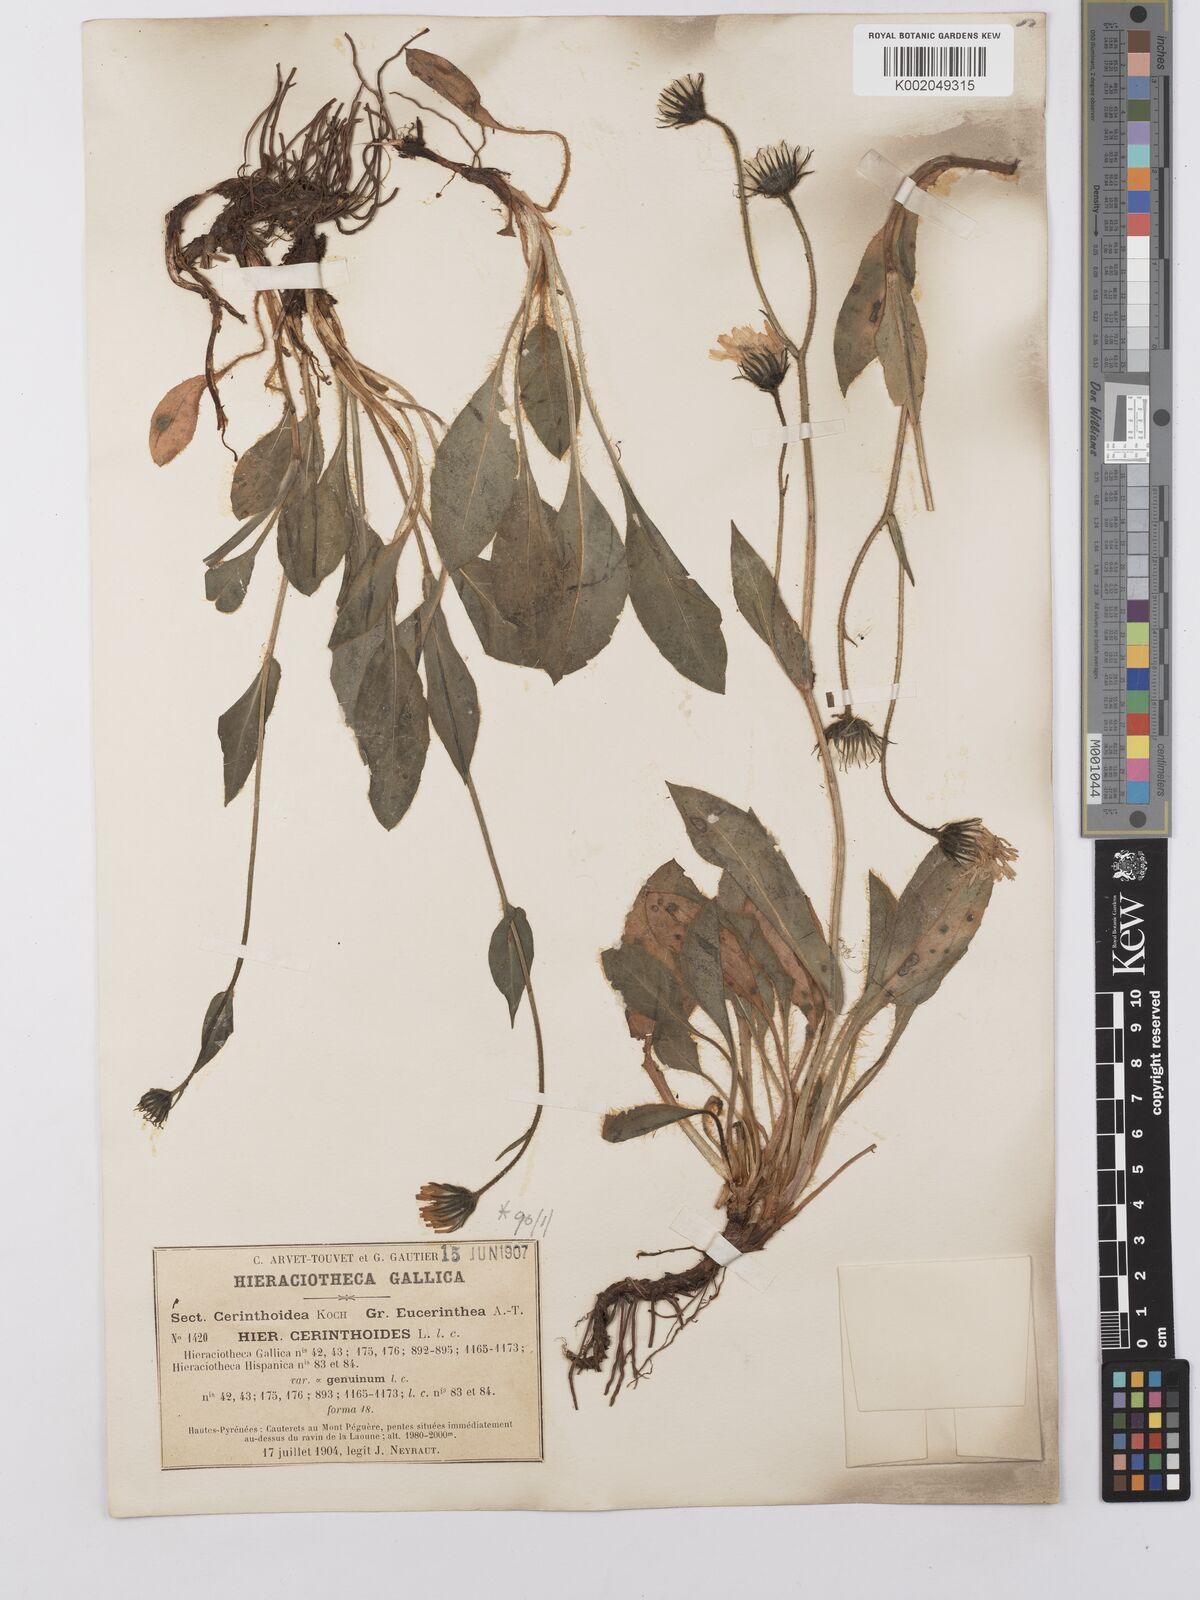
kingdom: Plantae
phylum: Tracheophyta
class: Magnoliopsida
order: Asterales
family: Asteraceae
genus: Hieracium
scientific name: Hieracium cerinthoides
